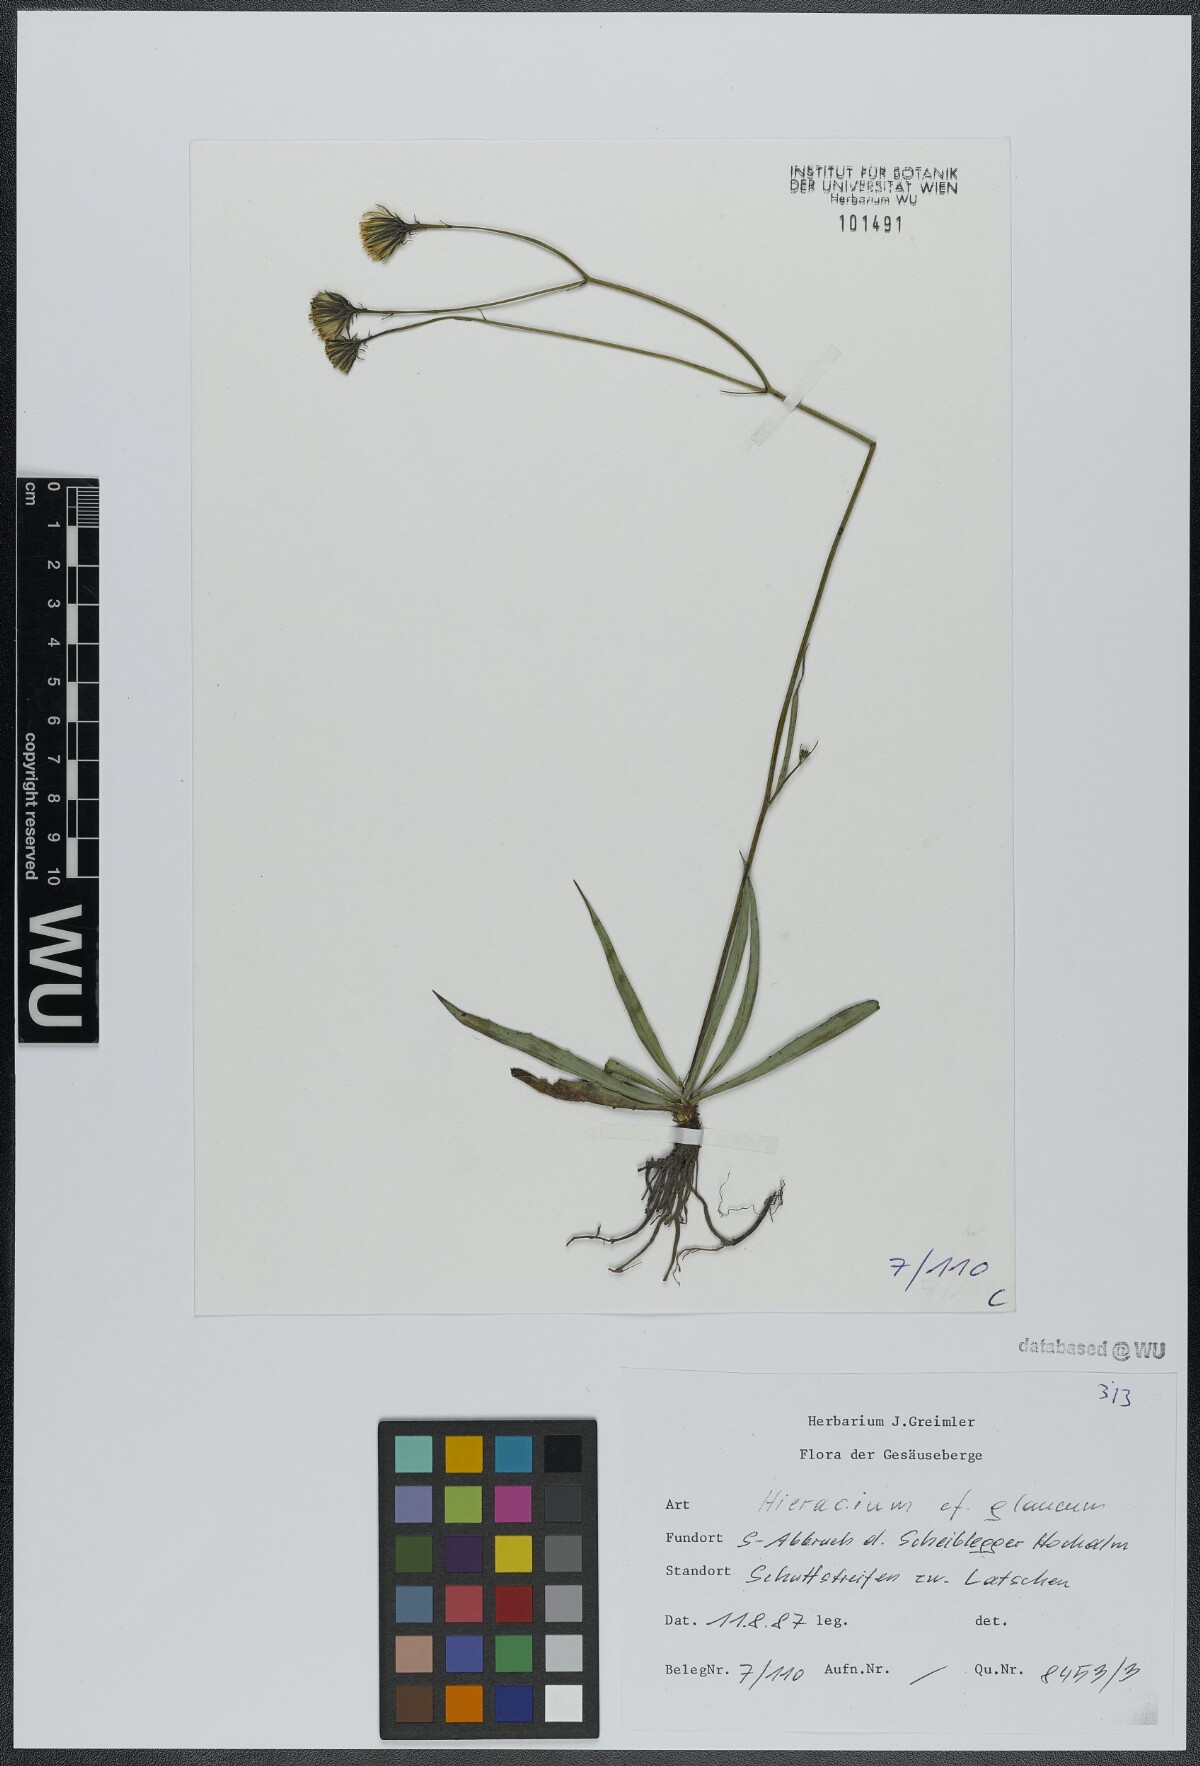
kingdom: Plantae
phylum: Tracheophyta
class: Magnoliopsida
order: Asterales
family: Asteraceae
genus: Hieracium
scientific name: Hieracium glaucum
